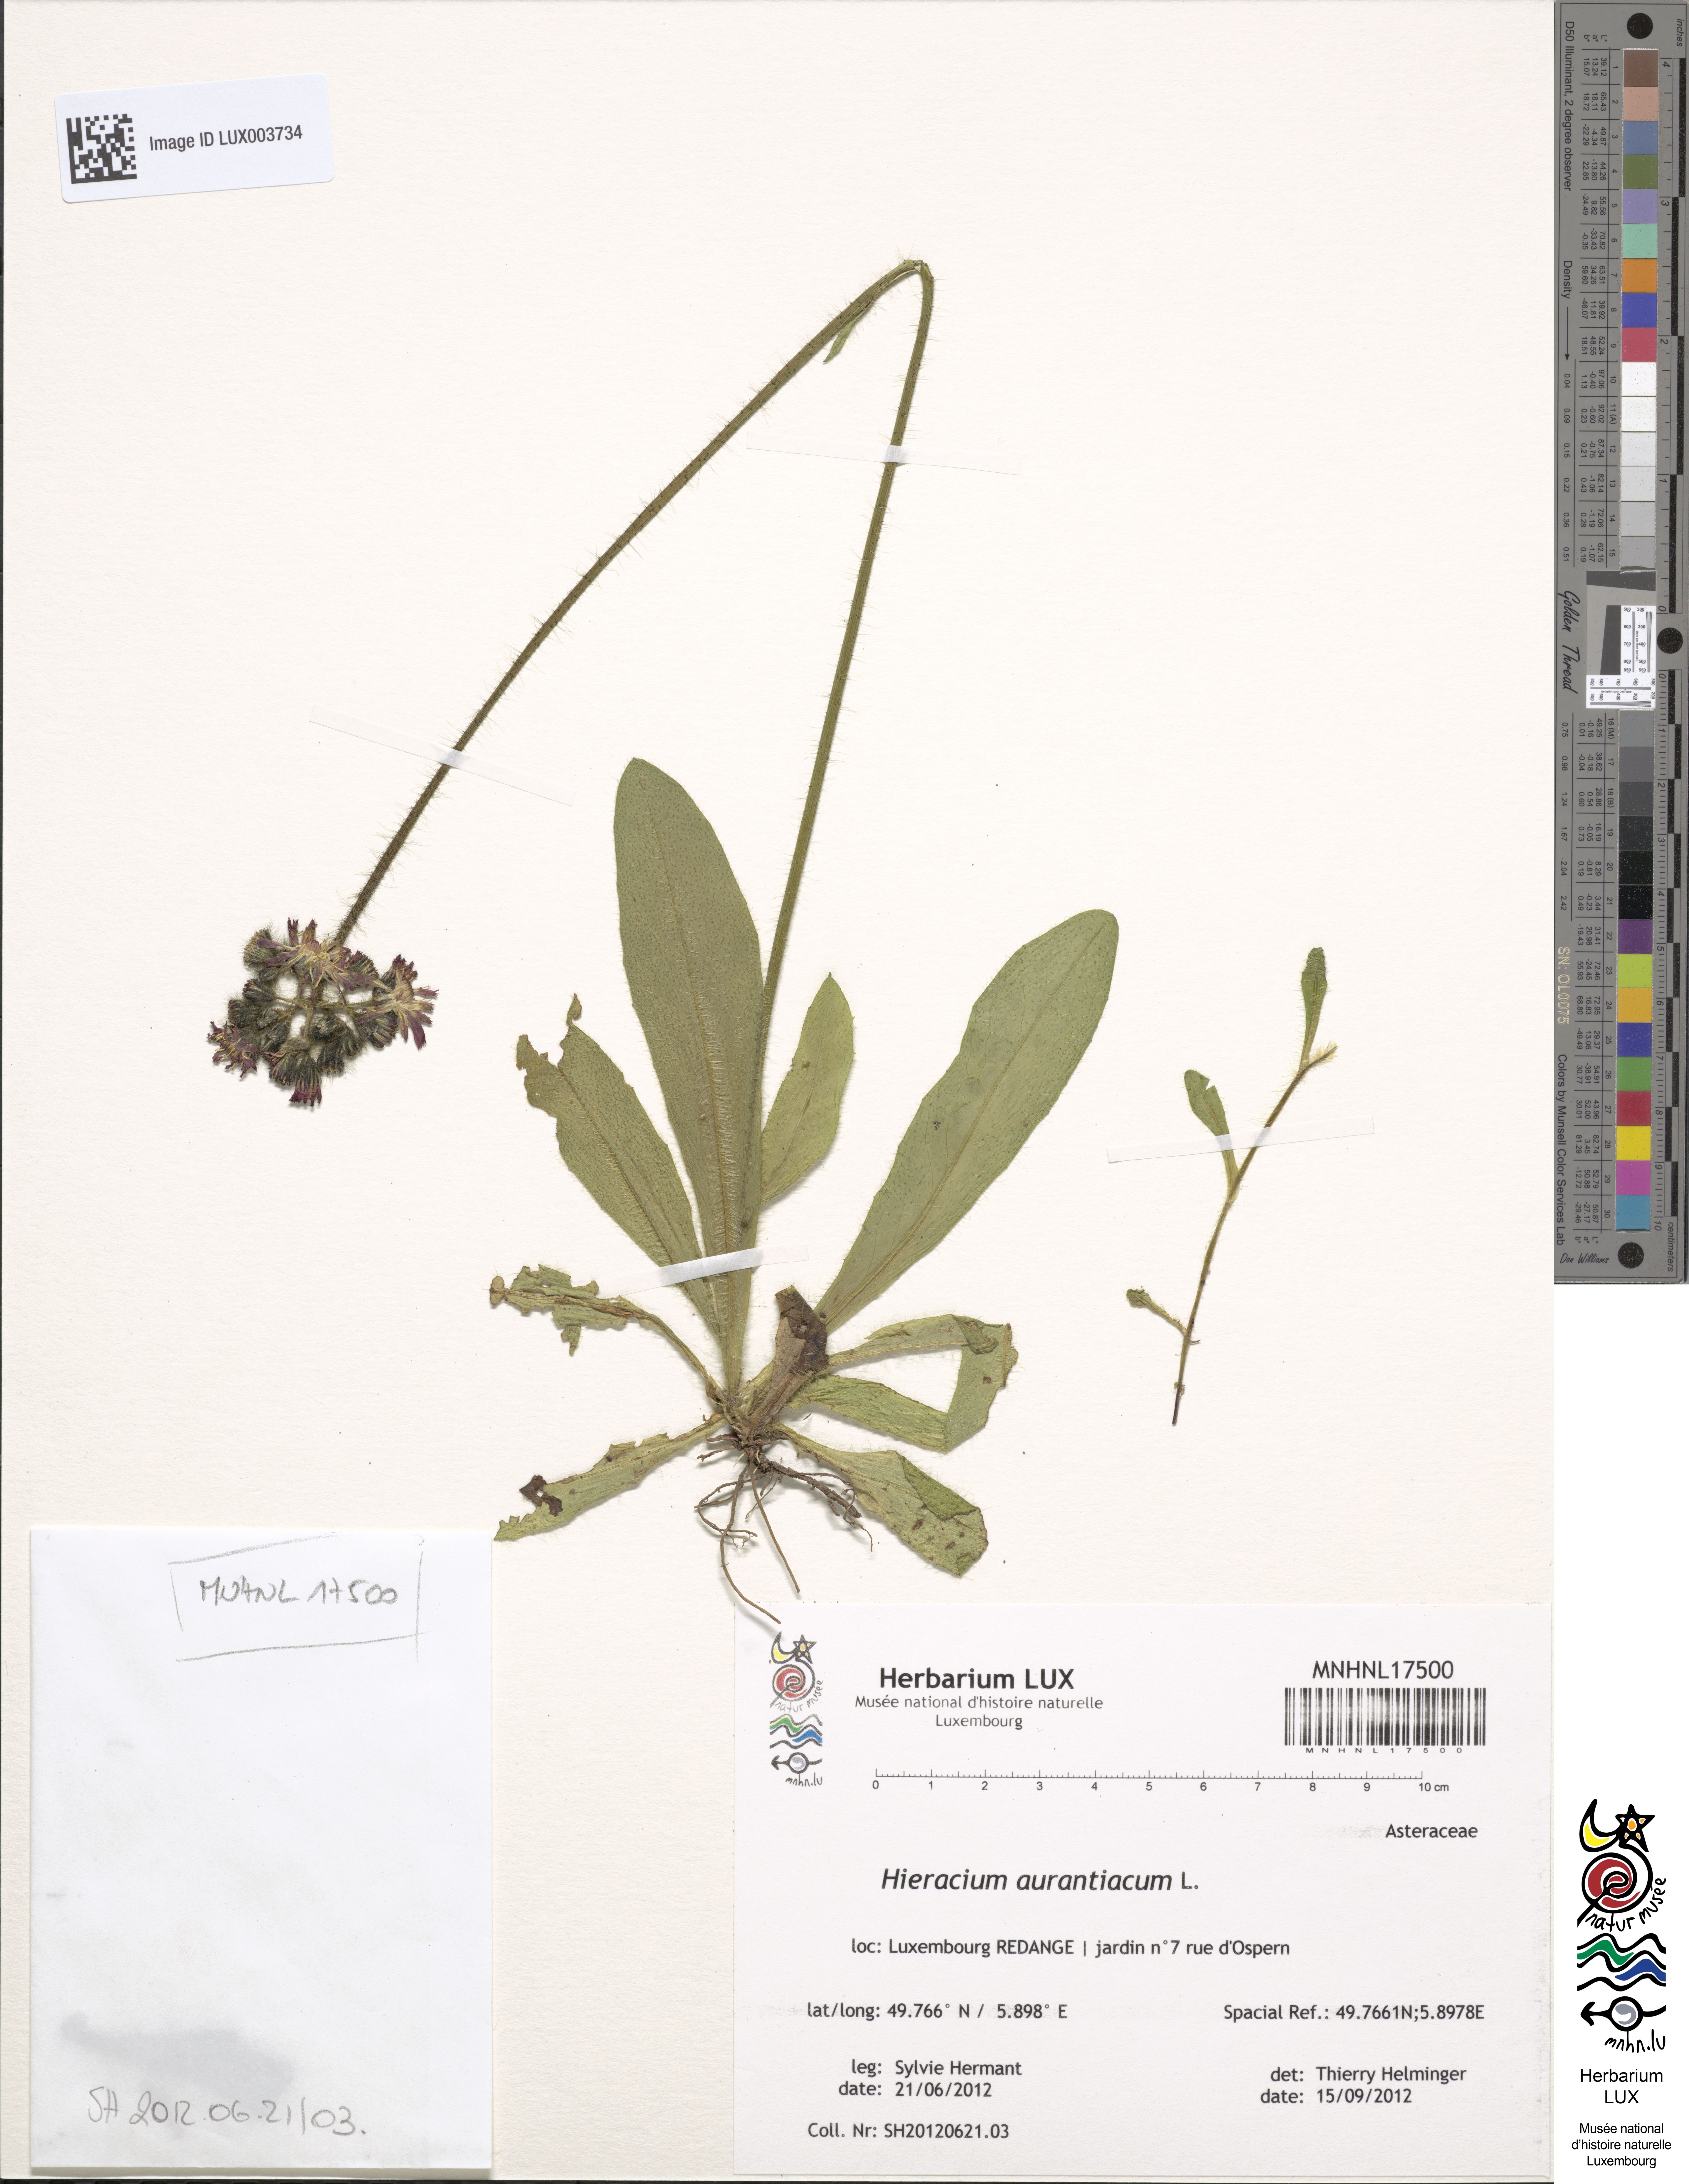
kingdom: Plantae
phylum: Tracheophyta
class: Magnoliopsida
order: Asterales
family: Asteraceae
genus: Pilosella
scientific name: Pilosella aurantiaca
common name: Fox-and-cubs
